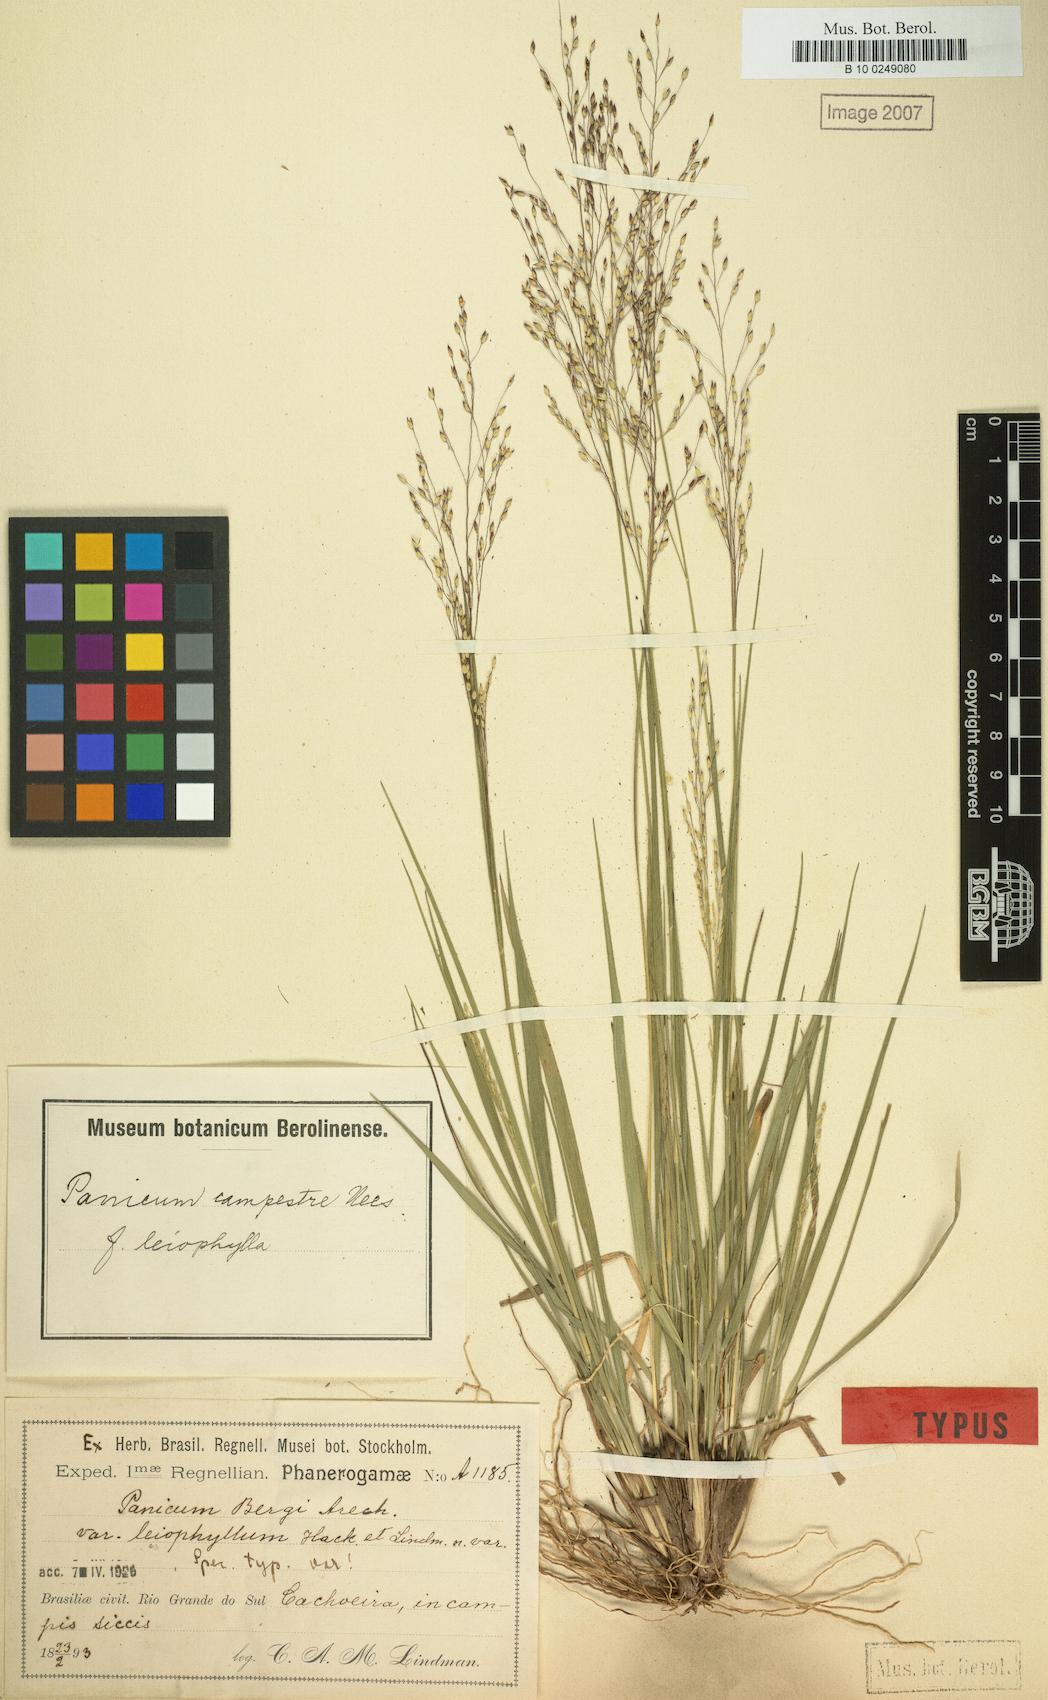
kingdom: Plantae
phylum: Tracheophyta
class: Liliopsida
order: Poales
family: Poaceae
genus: Panicum
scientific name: Panicum peladoense
